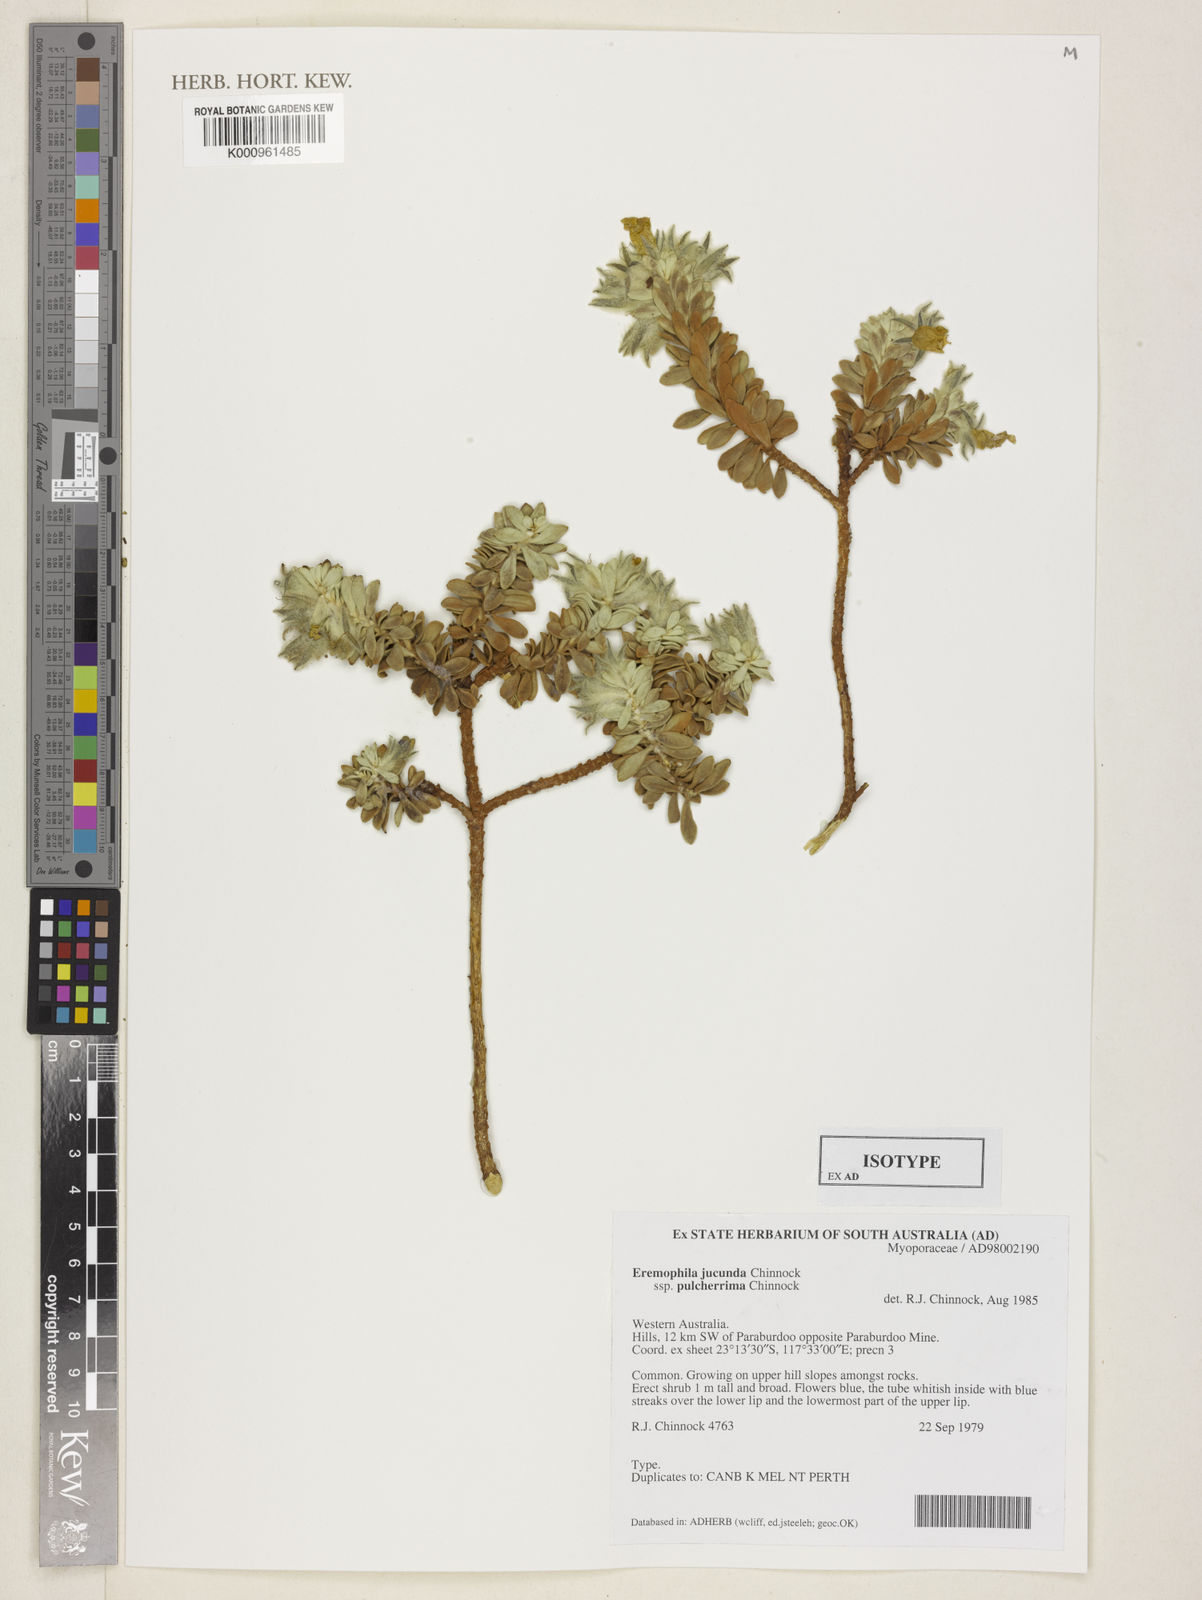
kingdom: Plantae
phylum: Tracheophyta
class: Magnoliopsida
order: Lamiales
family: Scrophulariaceae
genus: Eremophila
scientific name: Eremophila jucunda
